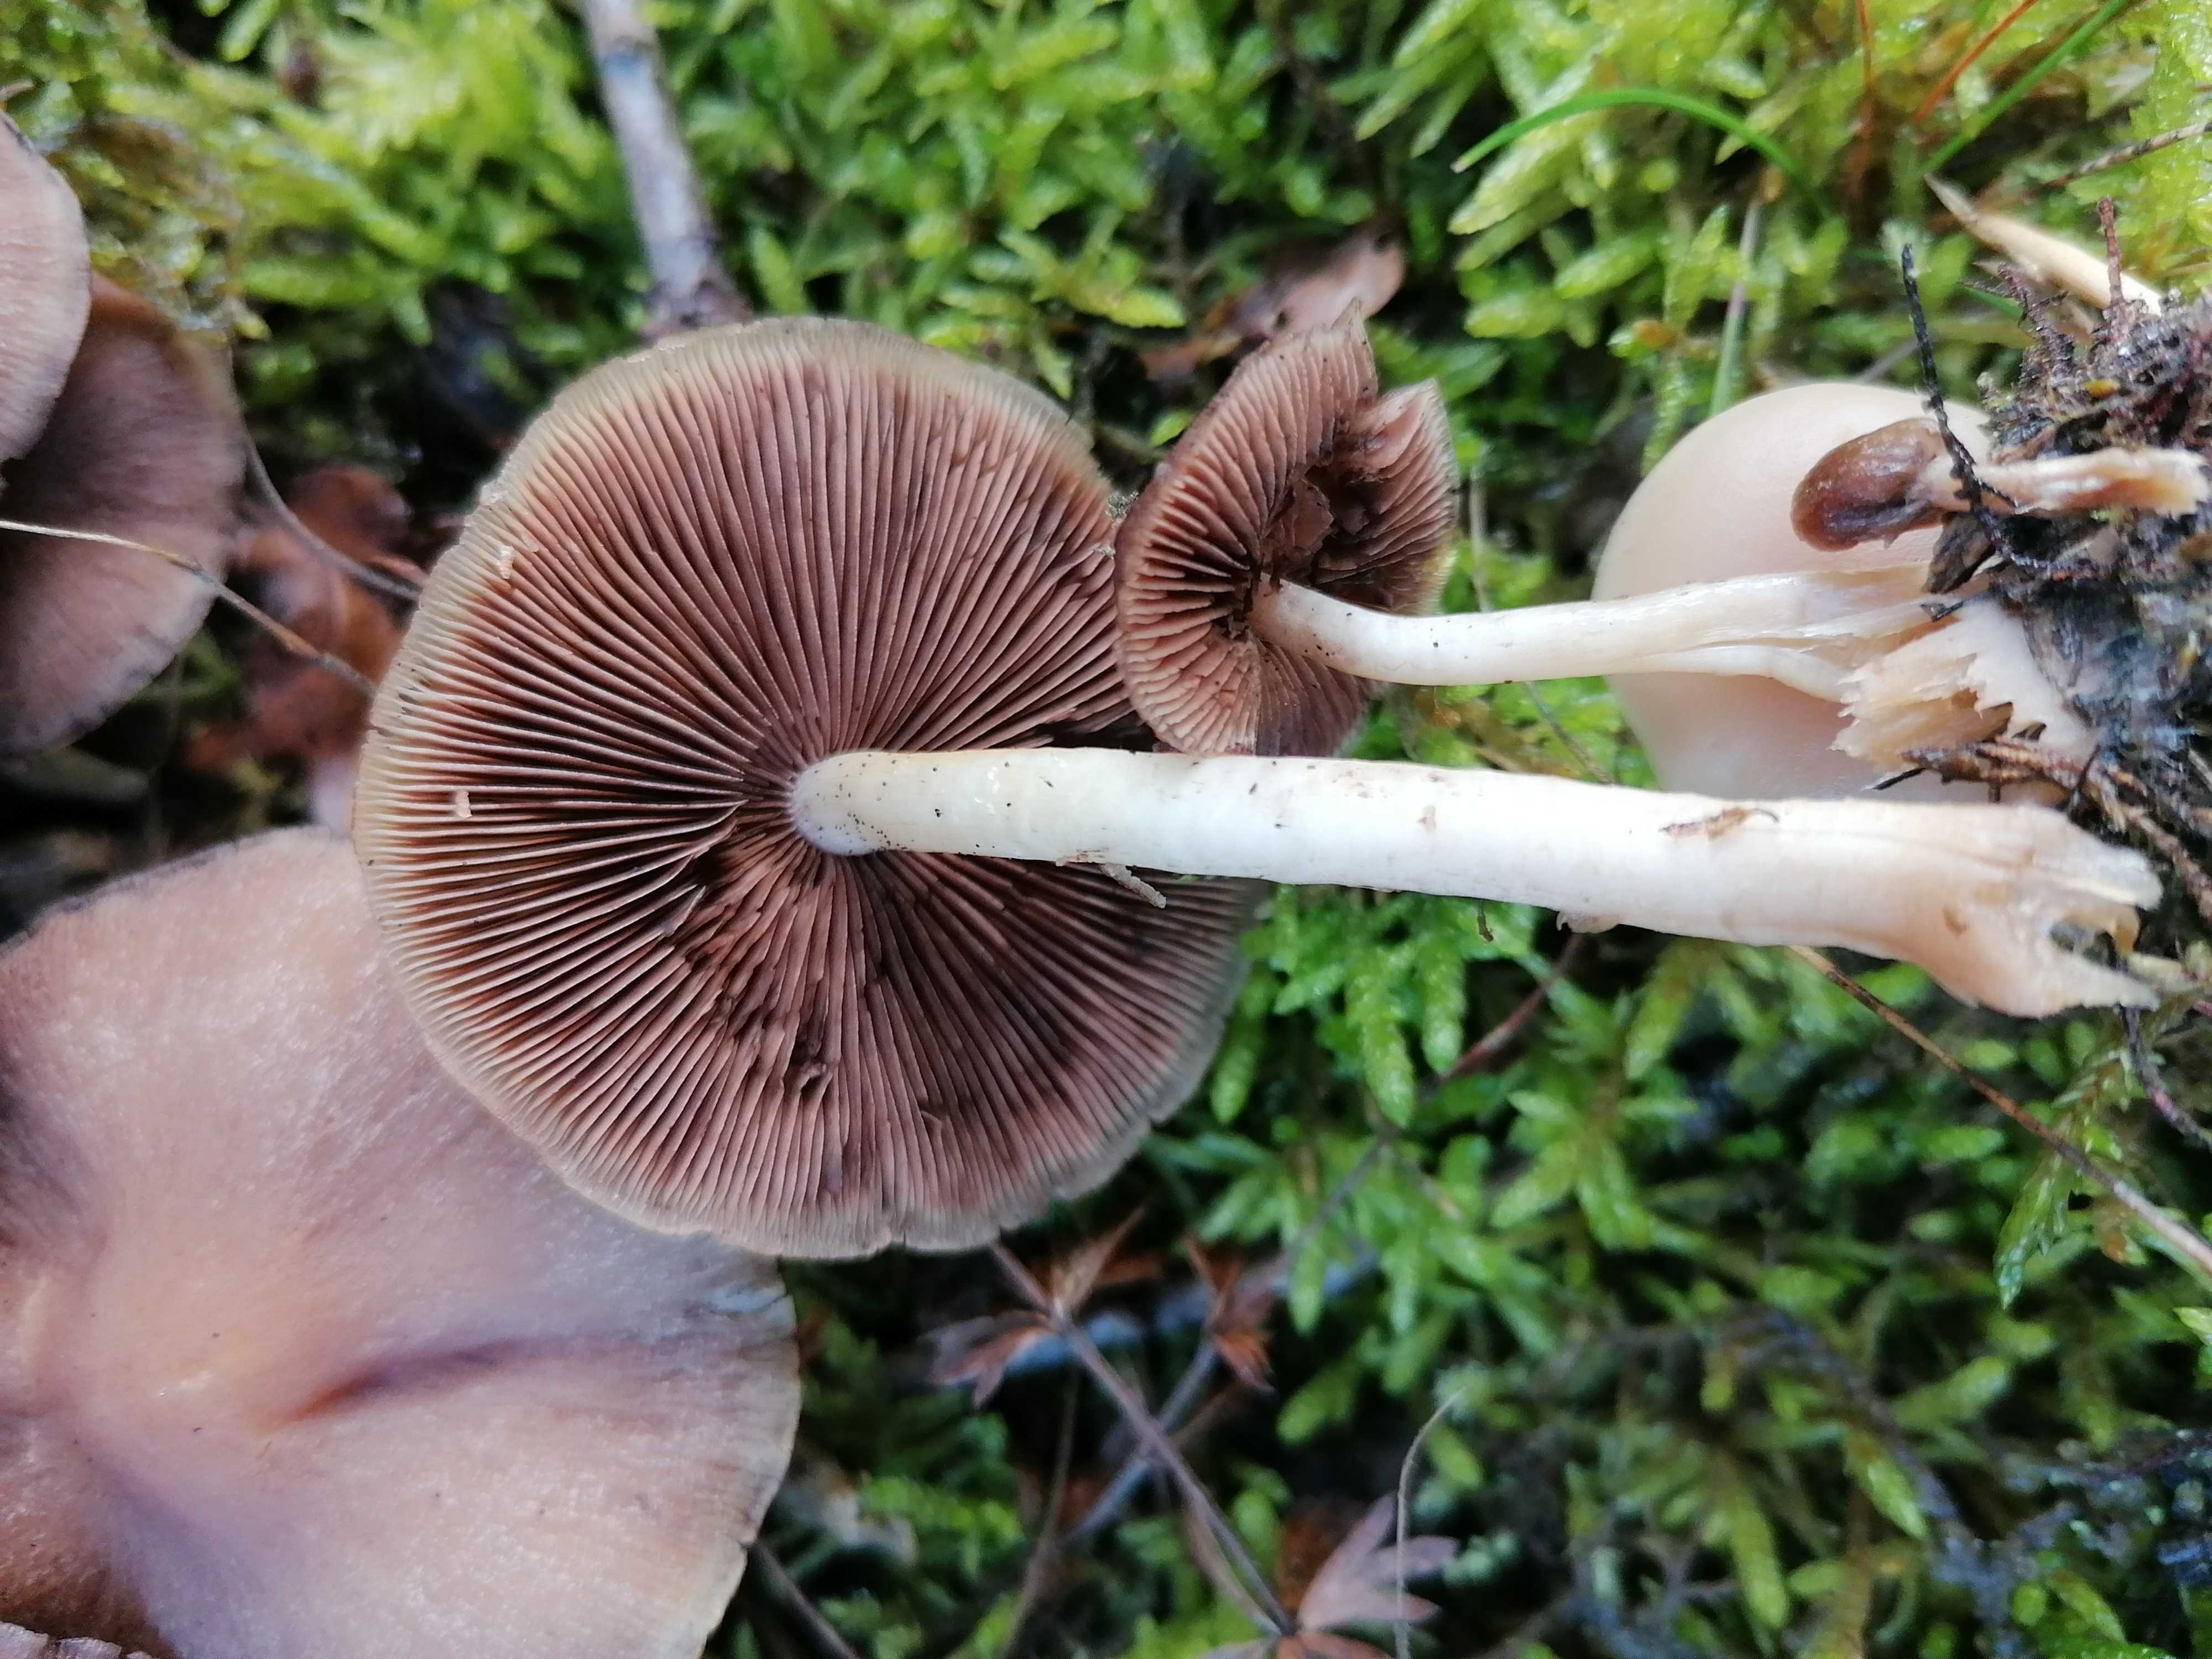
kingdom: Fungi
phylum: Basidiomycota
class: Agaricomycetes
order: Agaricales
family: Psathyrellaceae
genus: Psathyrella
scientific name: Psathyrella piluliformis
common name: lysstokket mørkhat
